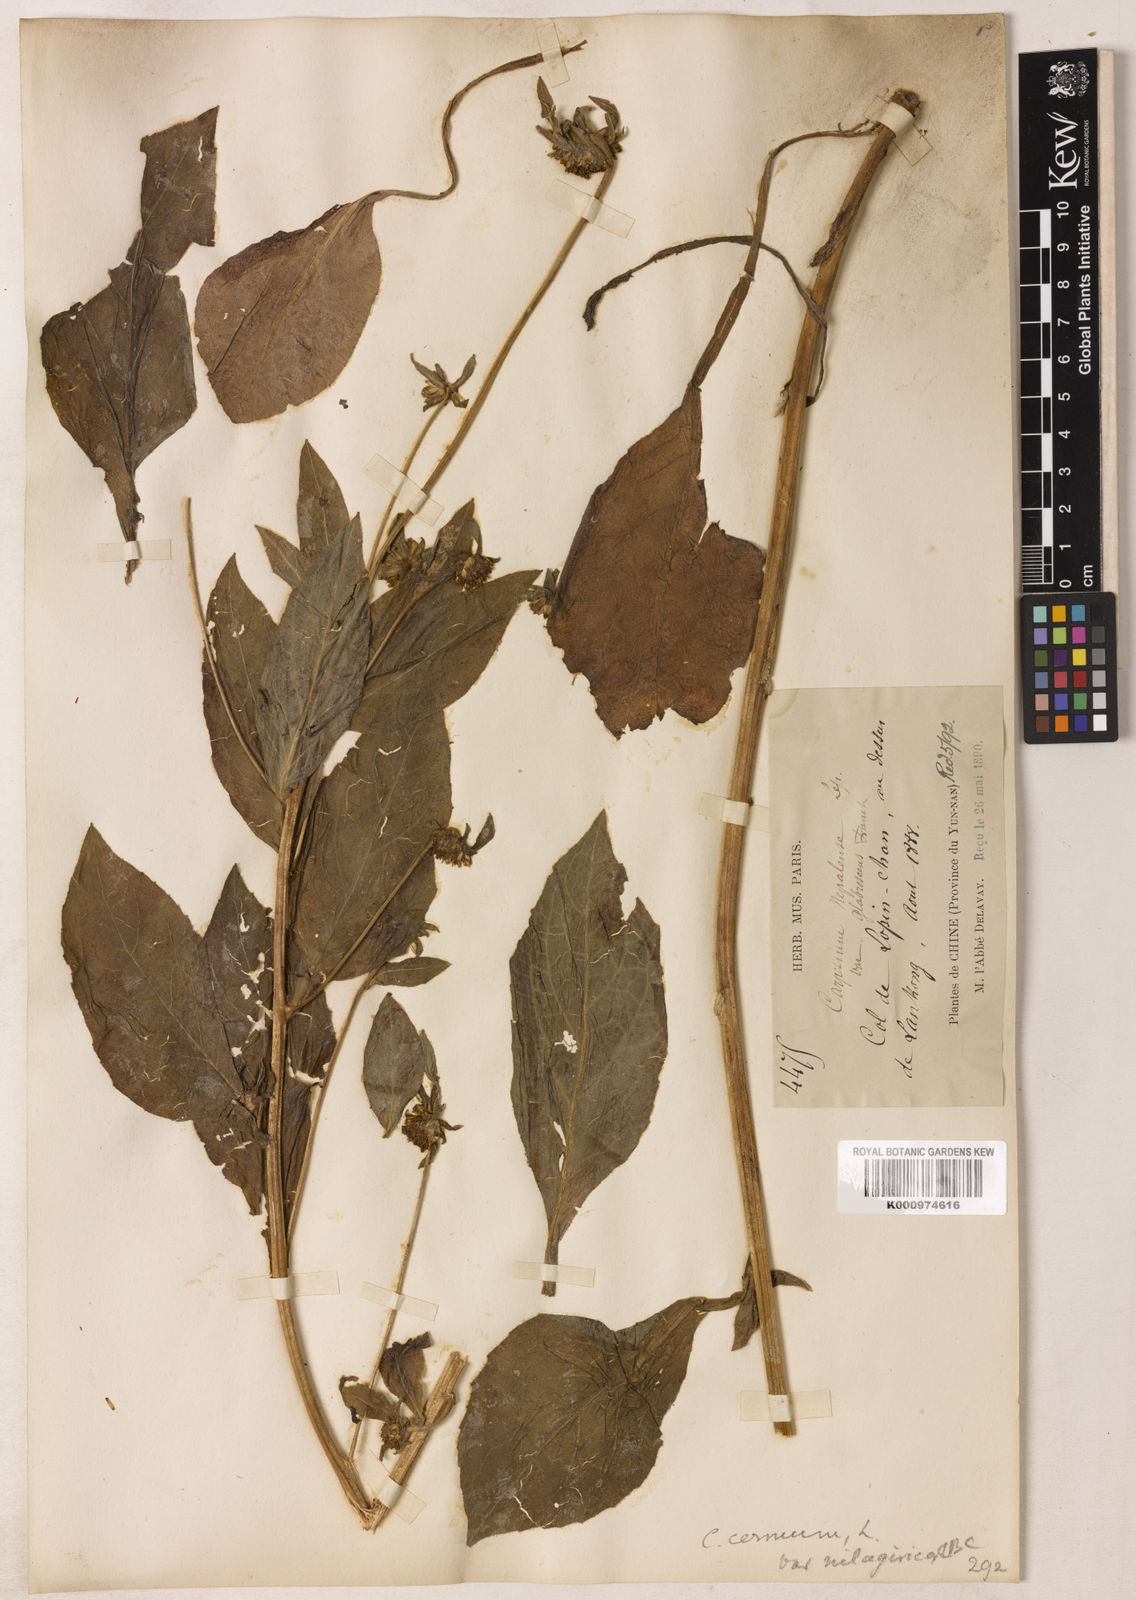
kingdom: Plantae
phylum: Tracheophyta
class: Magnoliopsida
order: Asterales
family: Asteraceae
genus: Carpesium
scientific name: Carpesium lipskyi
